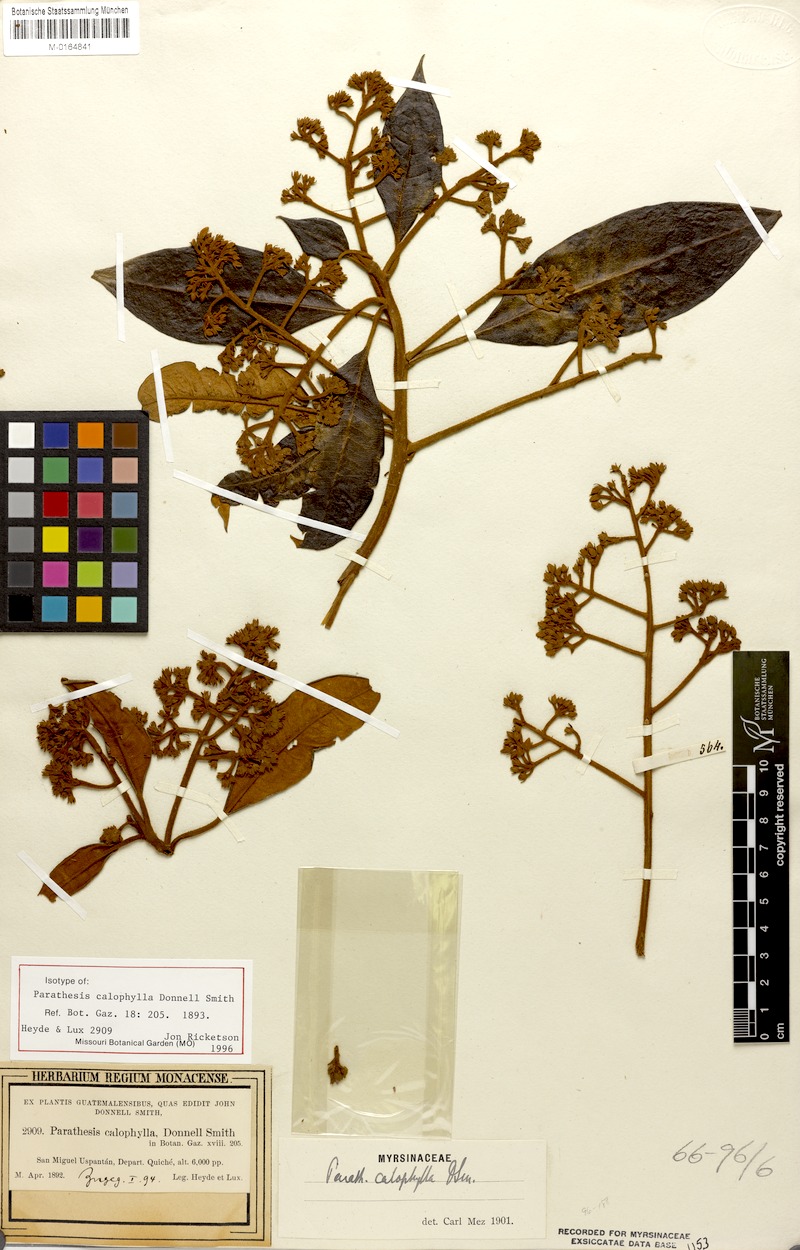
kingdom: Plantae
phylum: Tracheophyta
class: Magnoliopsida
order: Ericales
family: Primulaceae
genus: Parathesis
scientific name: Parathesis calophylla
